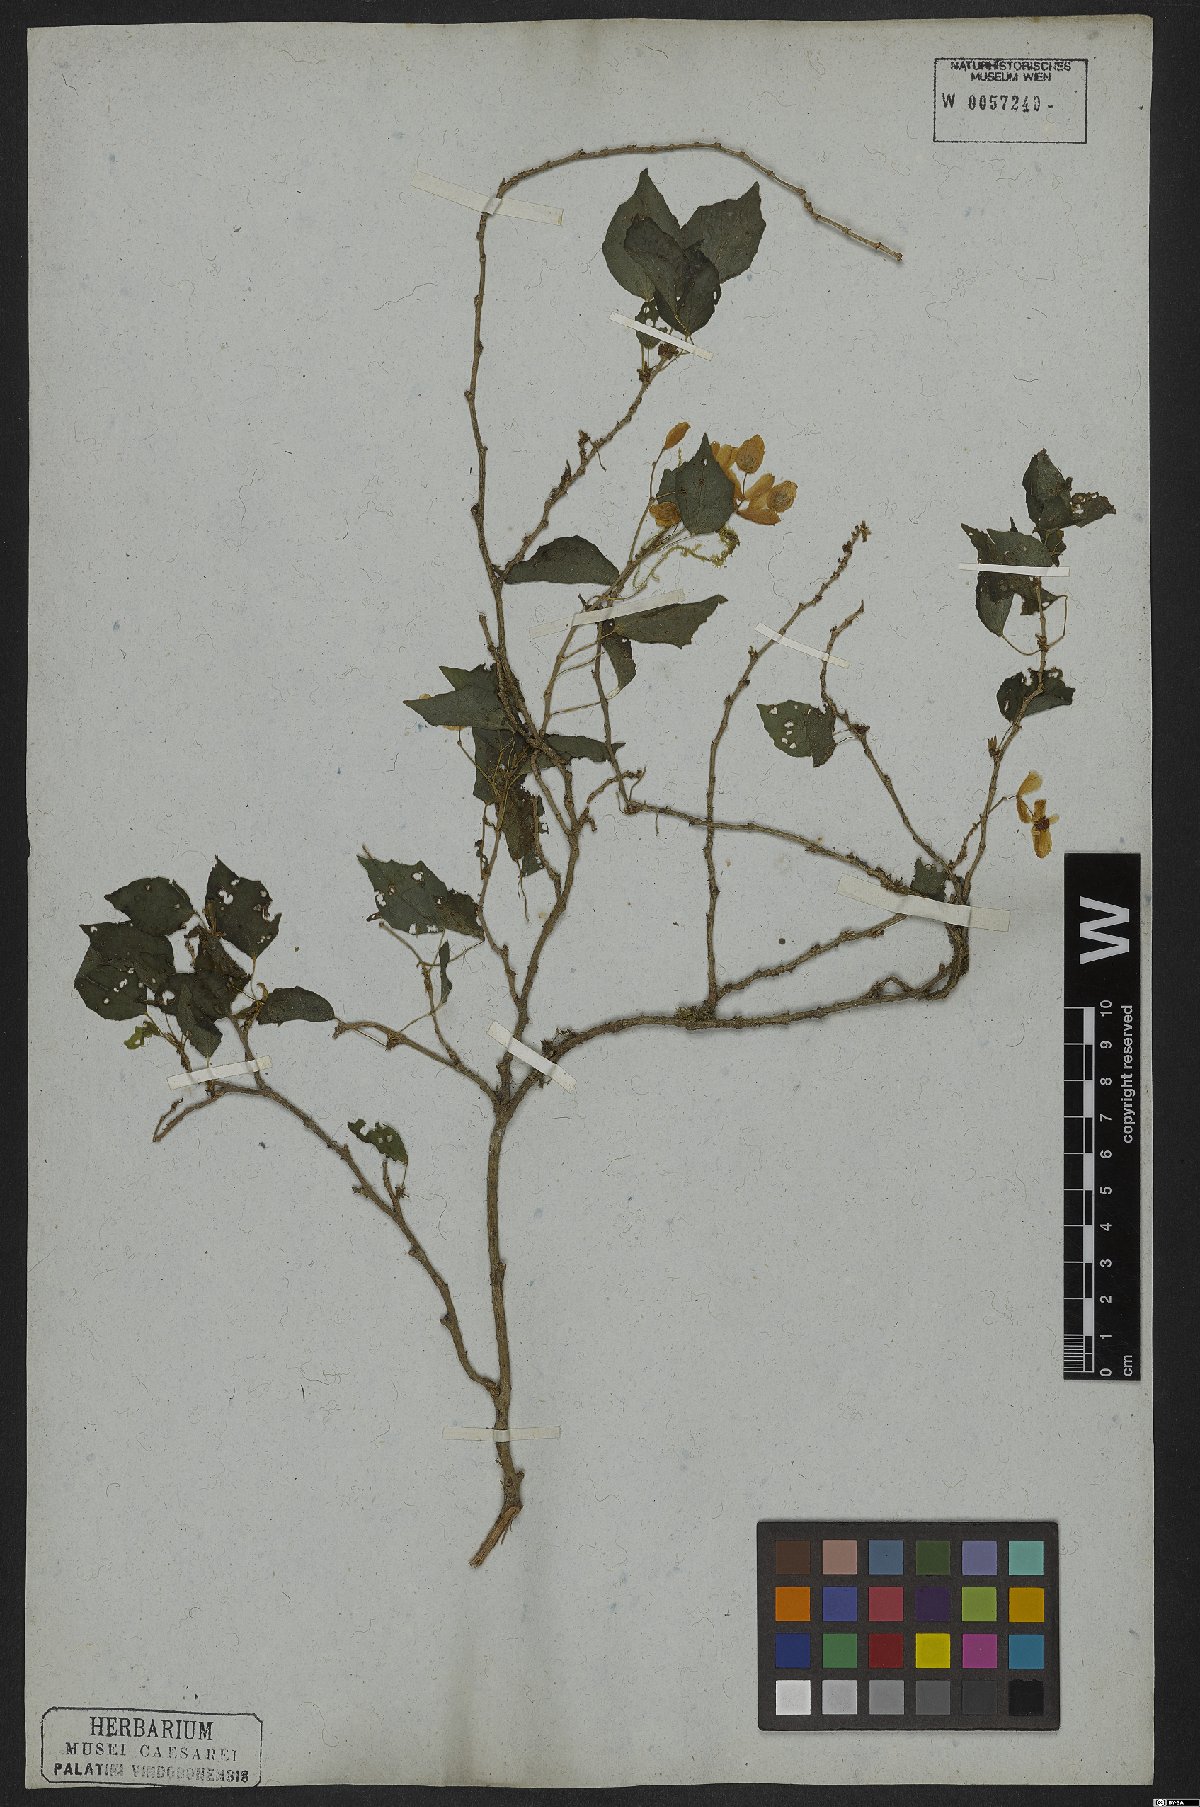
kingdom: Plantae
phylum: Tracheophyta
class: Magnoliopsida
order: Cucurbitales
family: Begoniaceae
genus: Begonia
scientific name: Begonia integerrima
